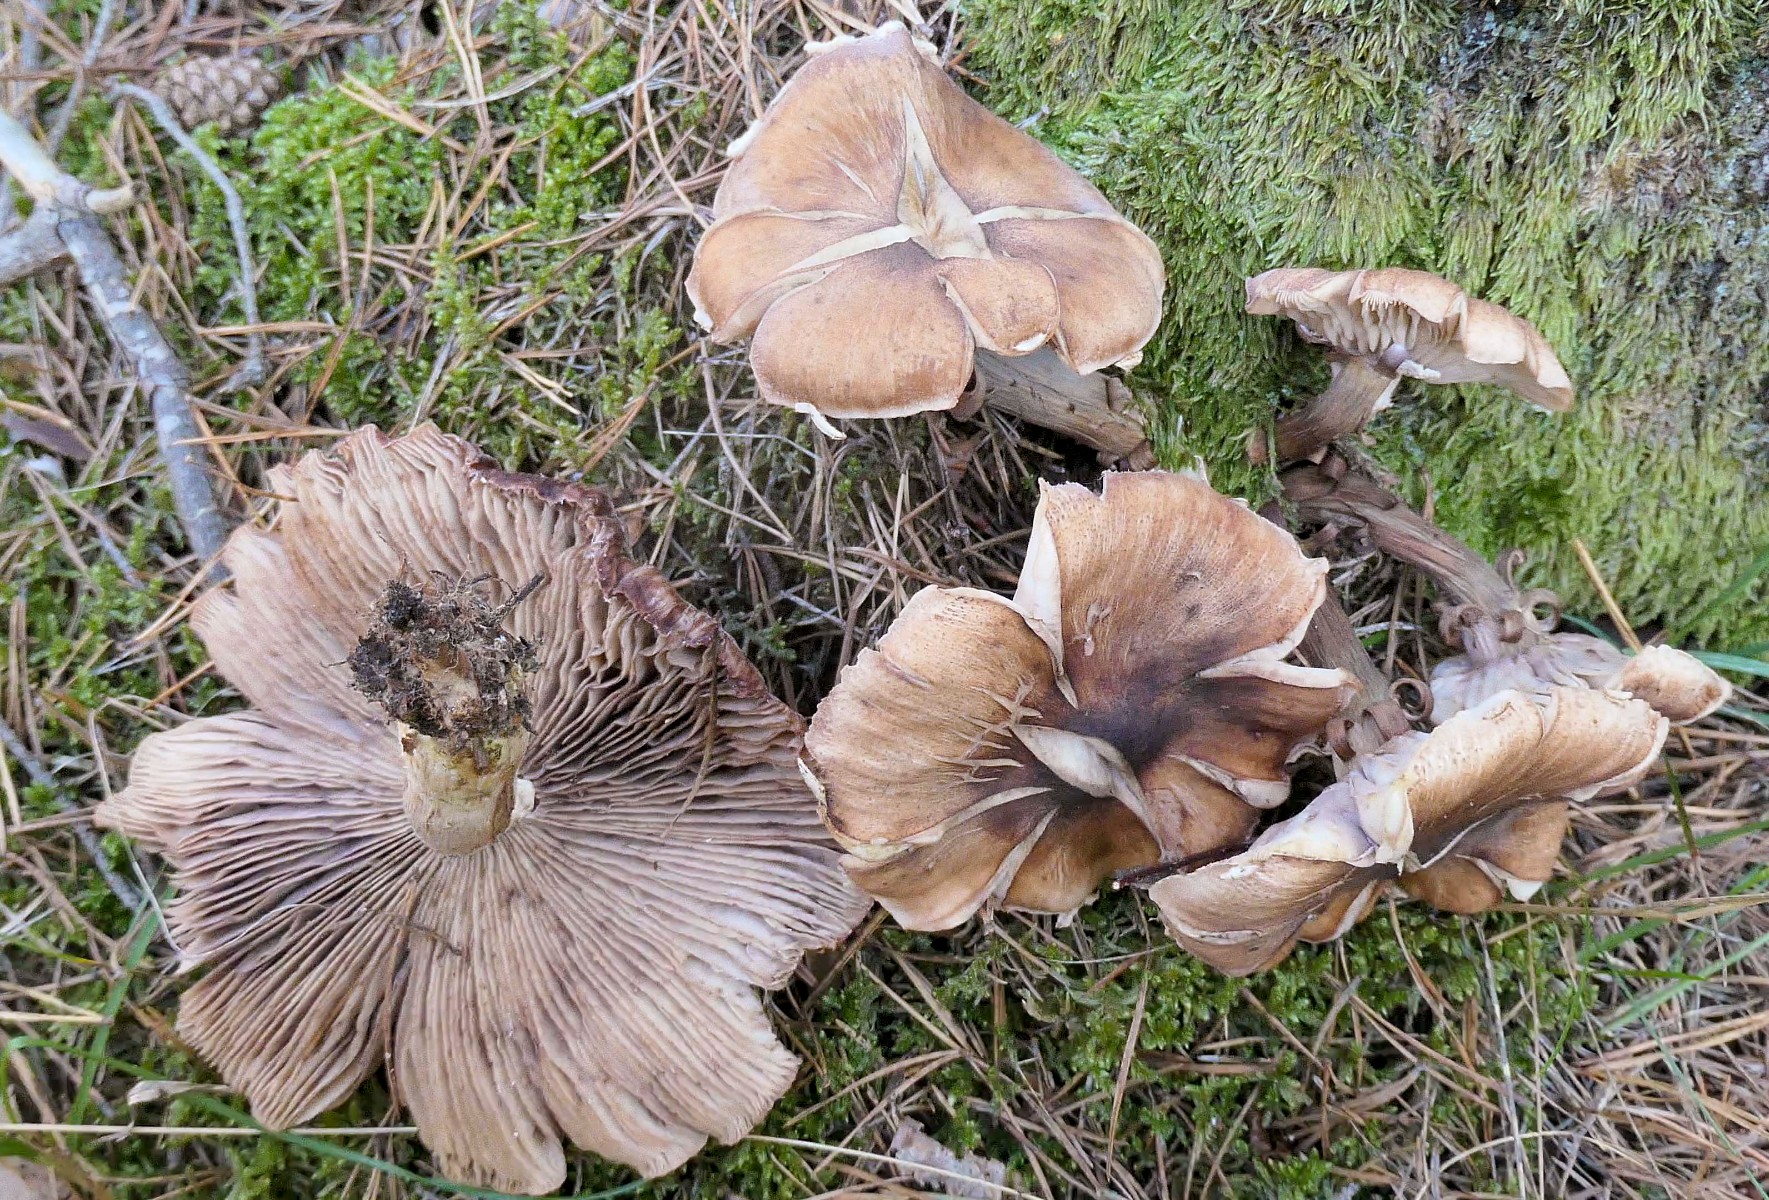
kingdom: Fungi
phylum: Basidiomycota
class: Agaricomycetes
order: Agaricales
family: Physalacriaceae
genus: Armillaria
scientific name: Armillaria
